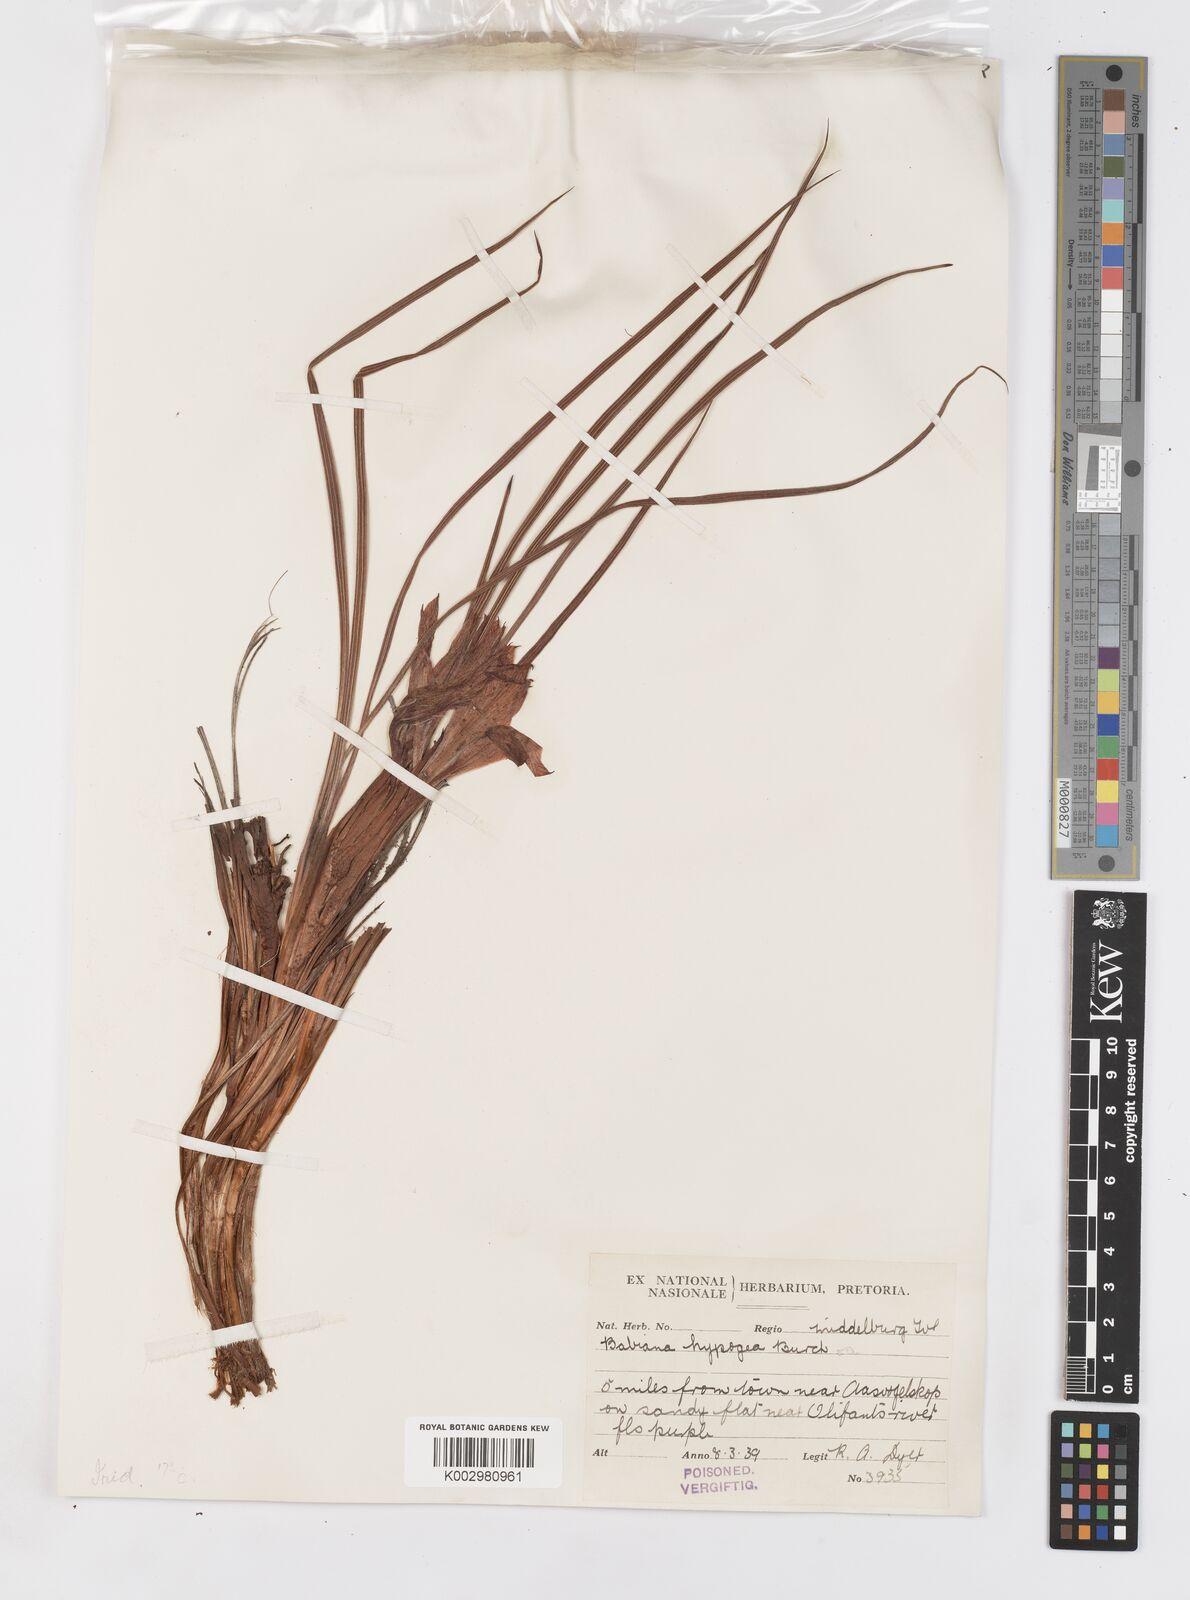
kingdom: Plantae
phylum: Tracheophyta
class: Liliopsida
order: Asparagales
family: Iridaceae
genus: Babiana
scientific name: Babiana bainesii
